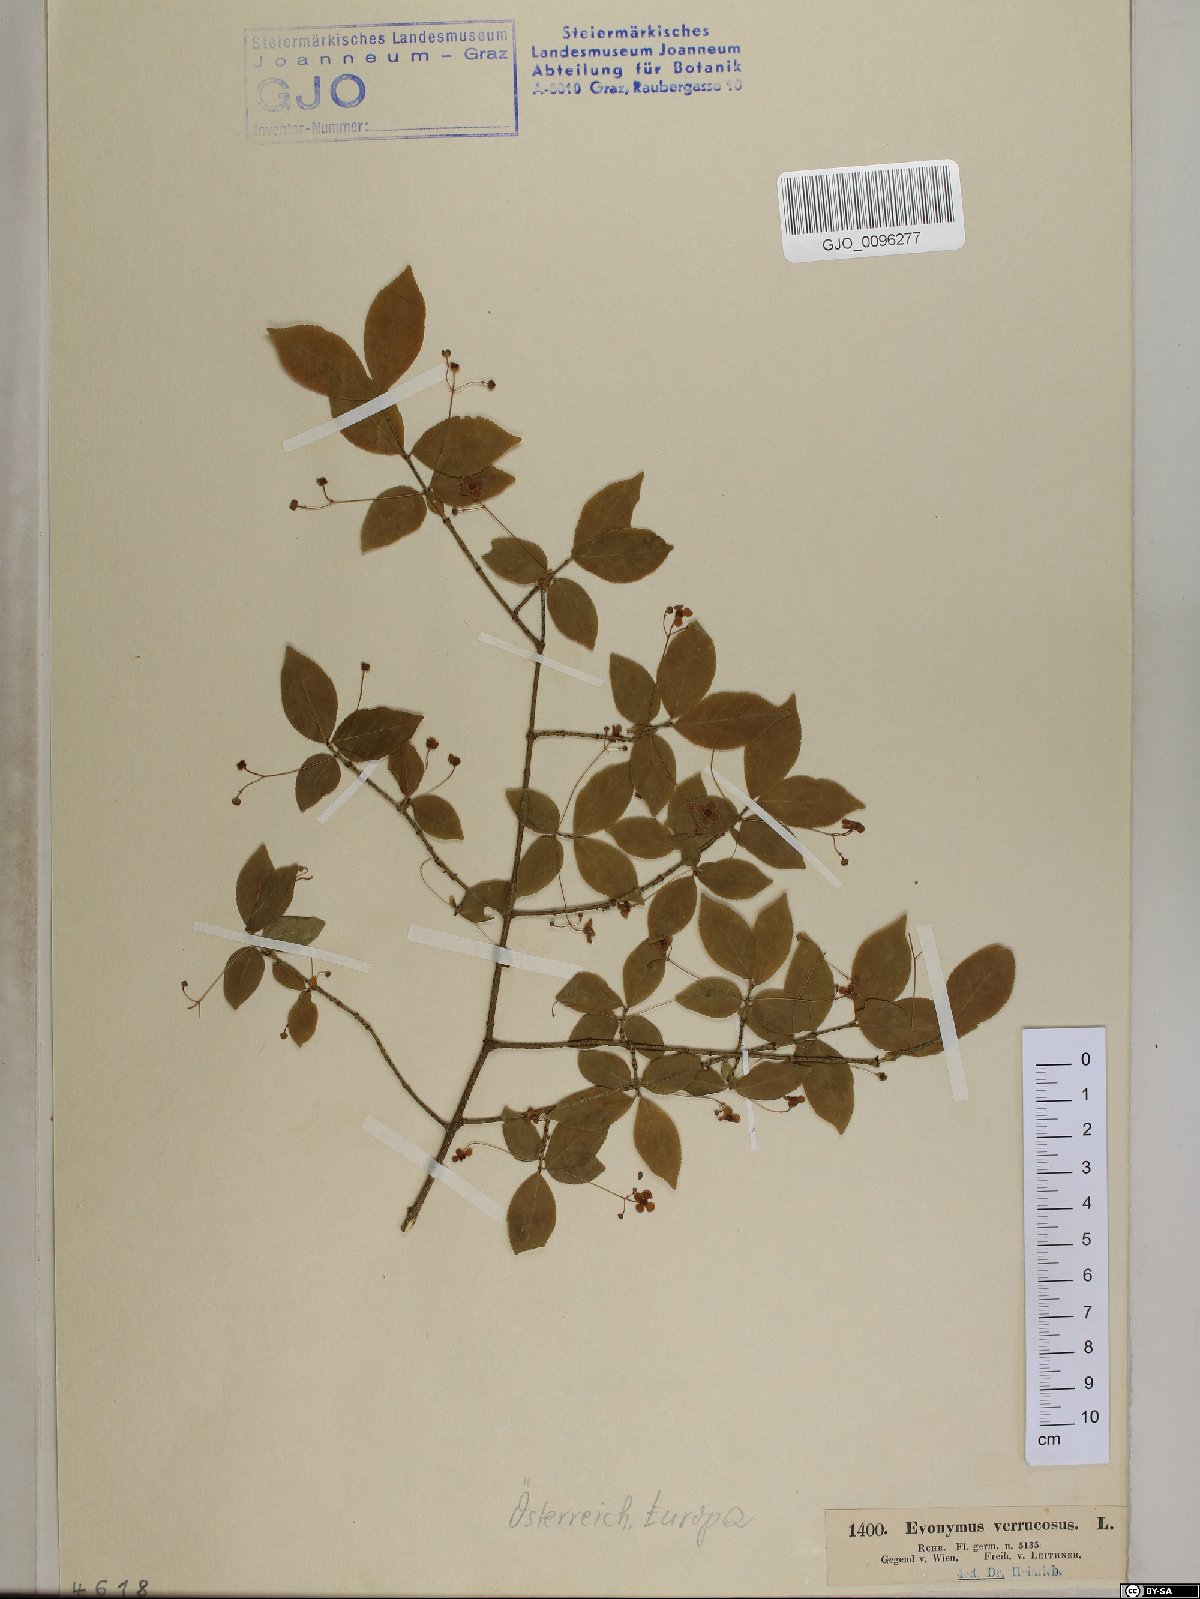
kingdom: Plantae
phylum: Tracheophyta
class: Magnoliopsida
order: Celastrales
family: Celastraceae
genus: Euonymus
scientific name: Euonymus verrucosus
